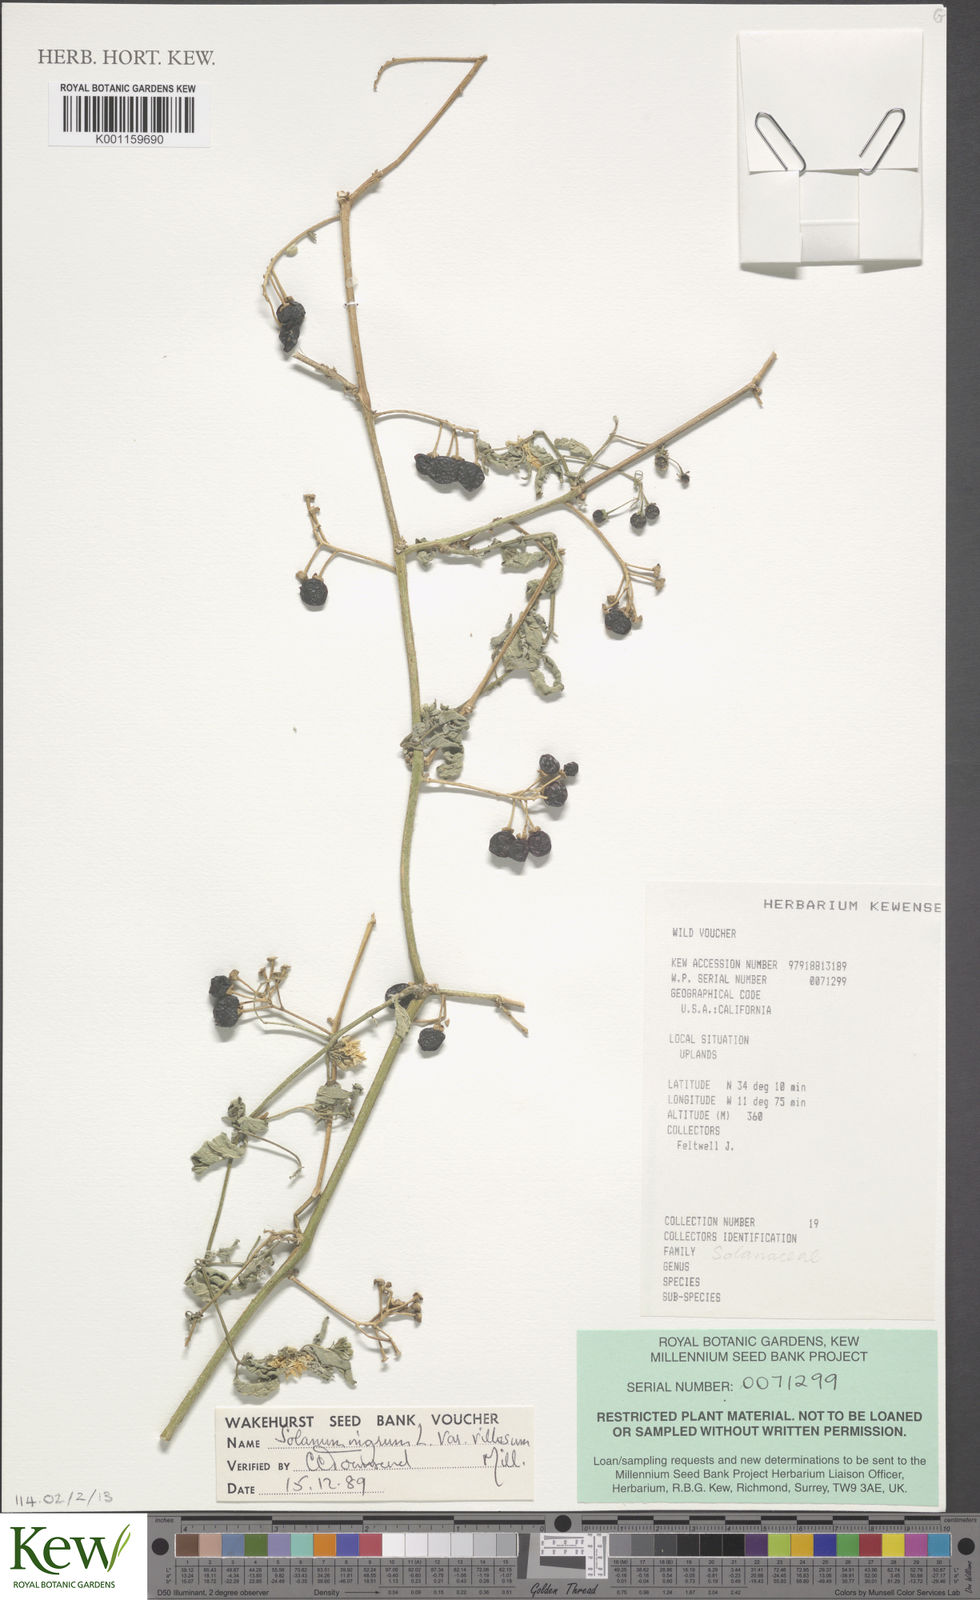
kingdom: Plantae
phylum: Tracheophyta
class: Magnoliopsida
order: Solanales
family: Solanaceae
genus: Solanum
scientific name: Solanum douglasii
